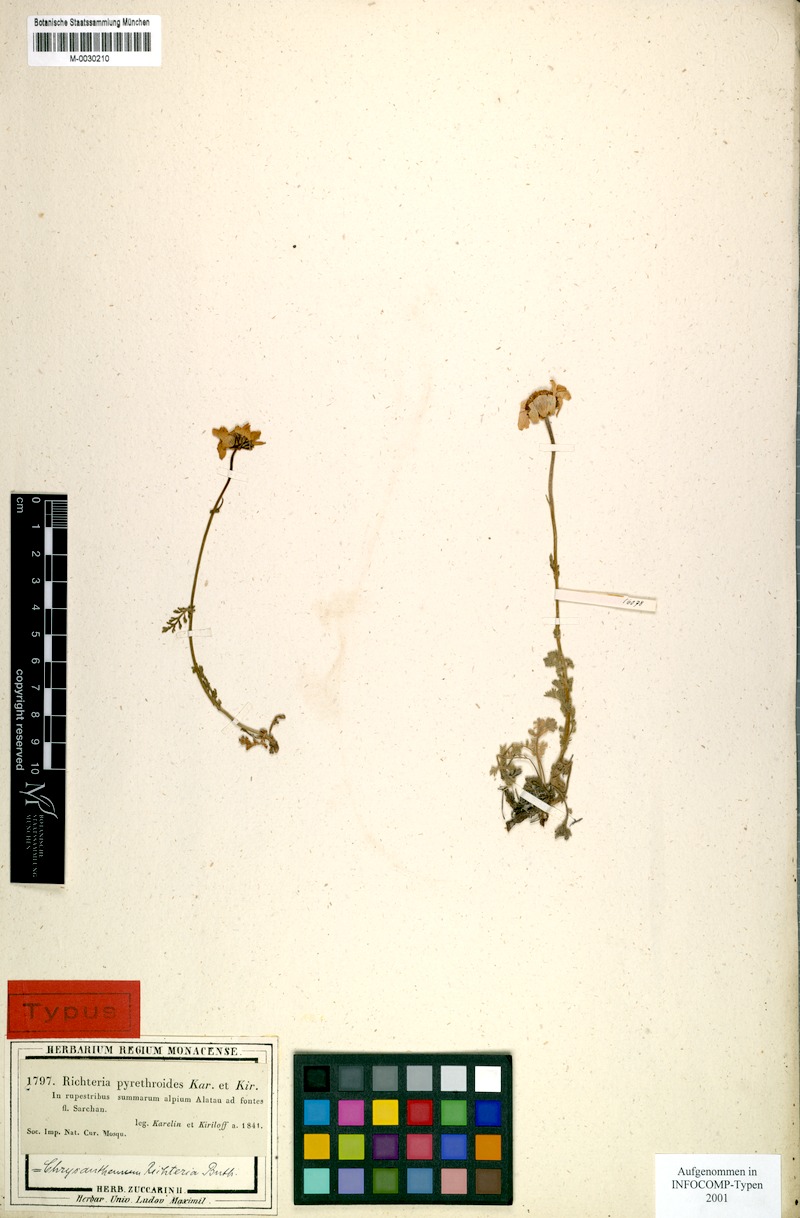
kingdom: Plantae
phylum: Tracheophyta
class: Magnoliopsida
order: Asterales
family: Asteraceae
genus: Richteria
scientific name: Richteria pyrethroides
